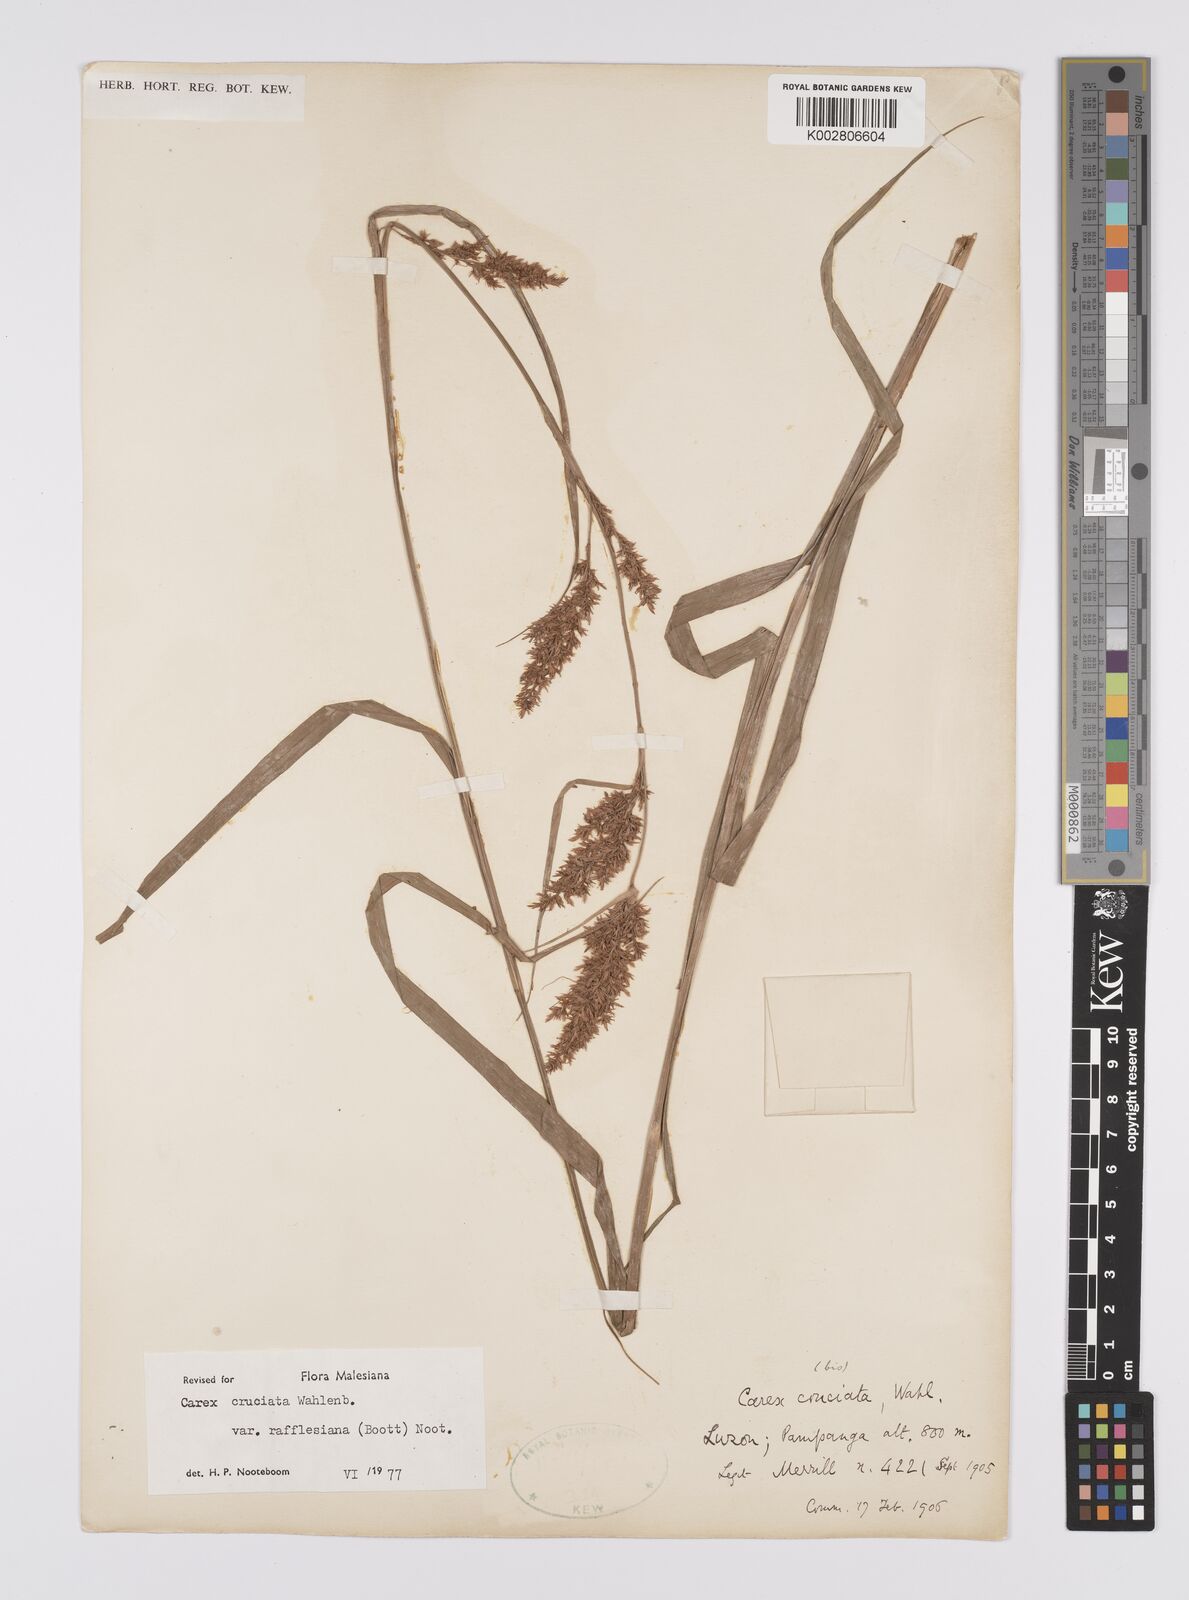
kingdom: Plantae
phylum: Tracheophyta
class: Liliopsida
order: Poales
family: Cyperaceae
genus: Carex
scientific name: Carex rafflesiana
